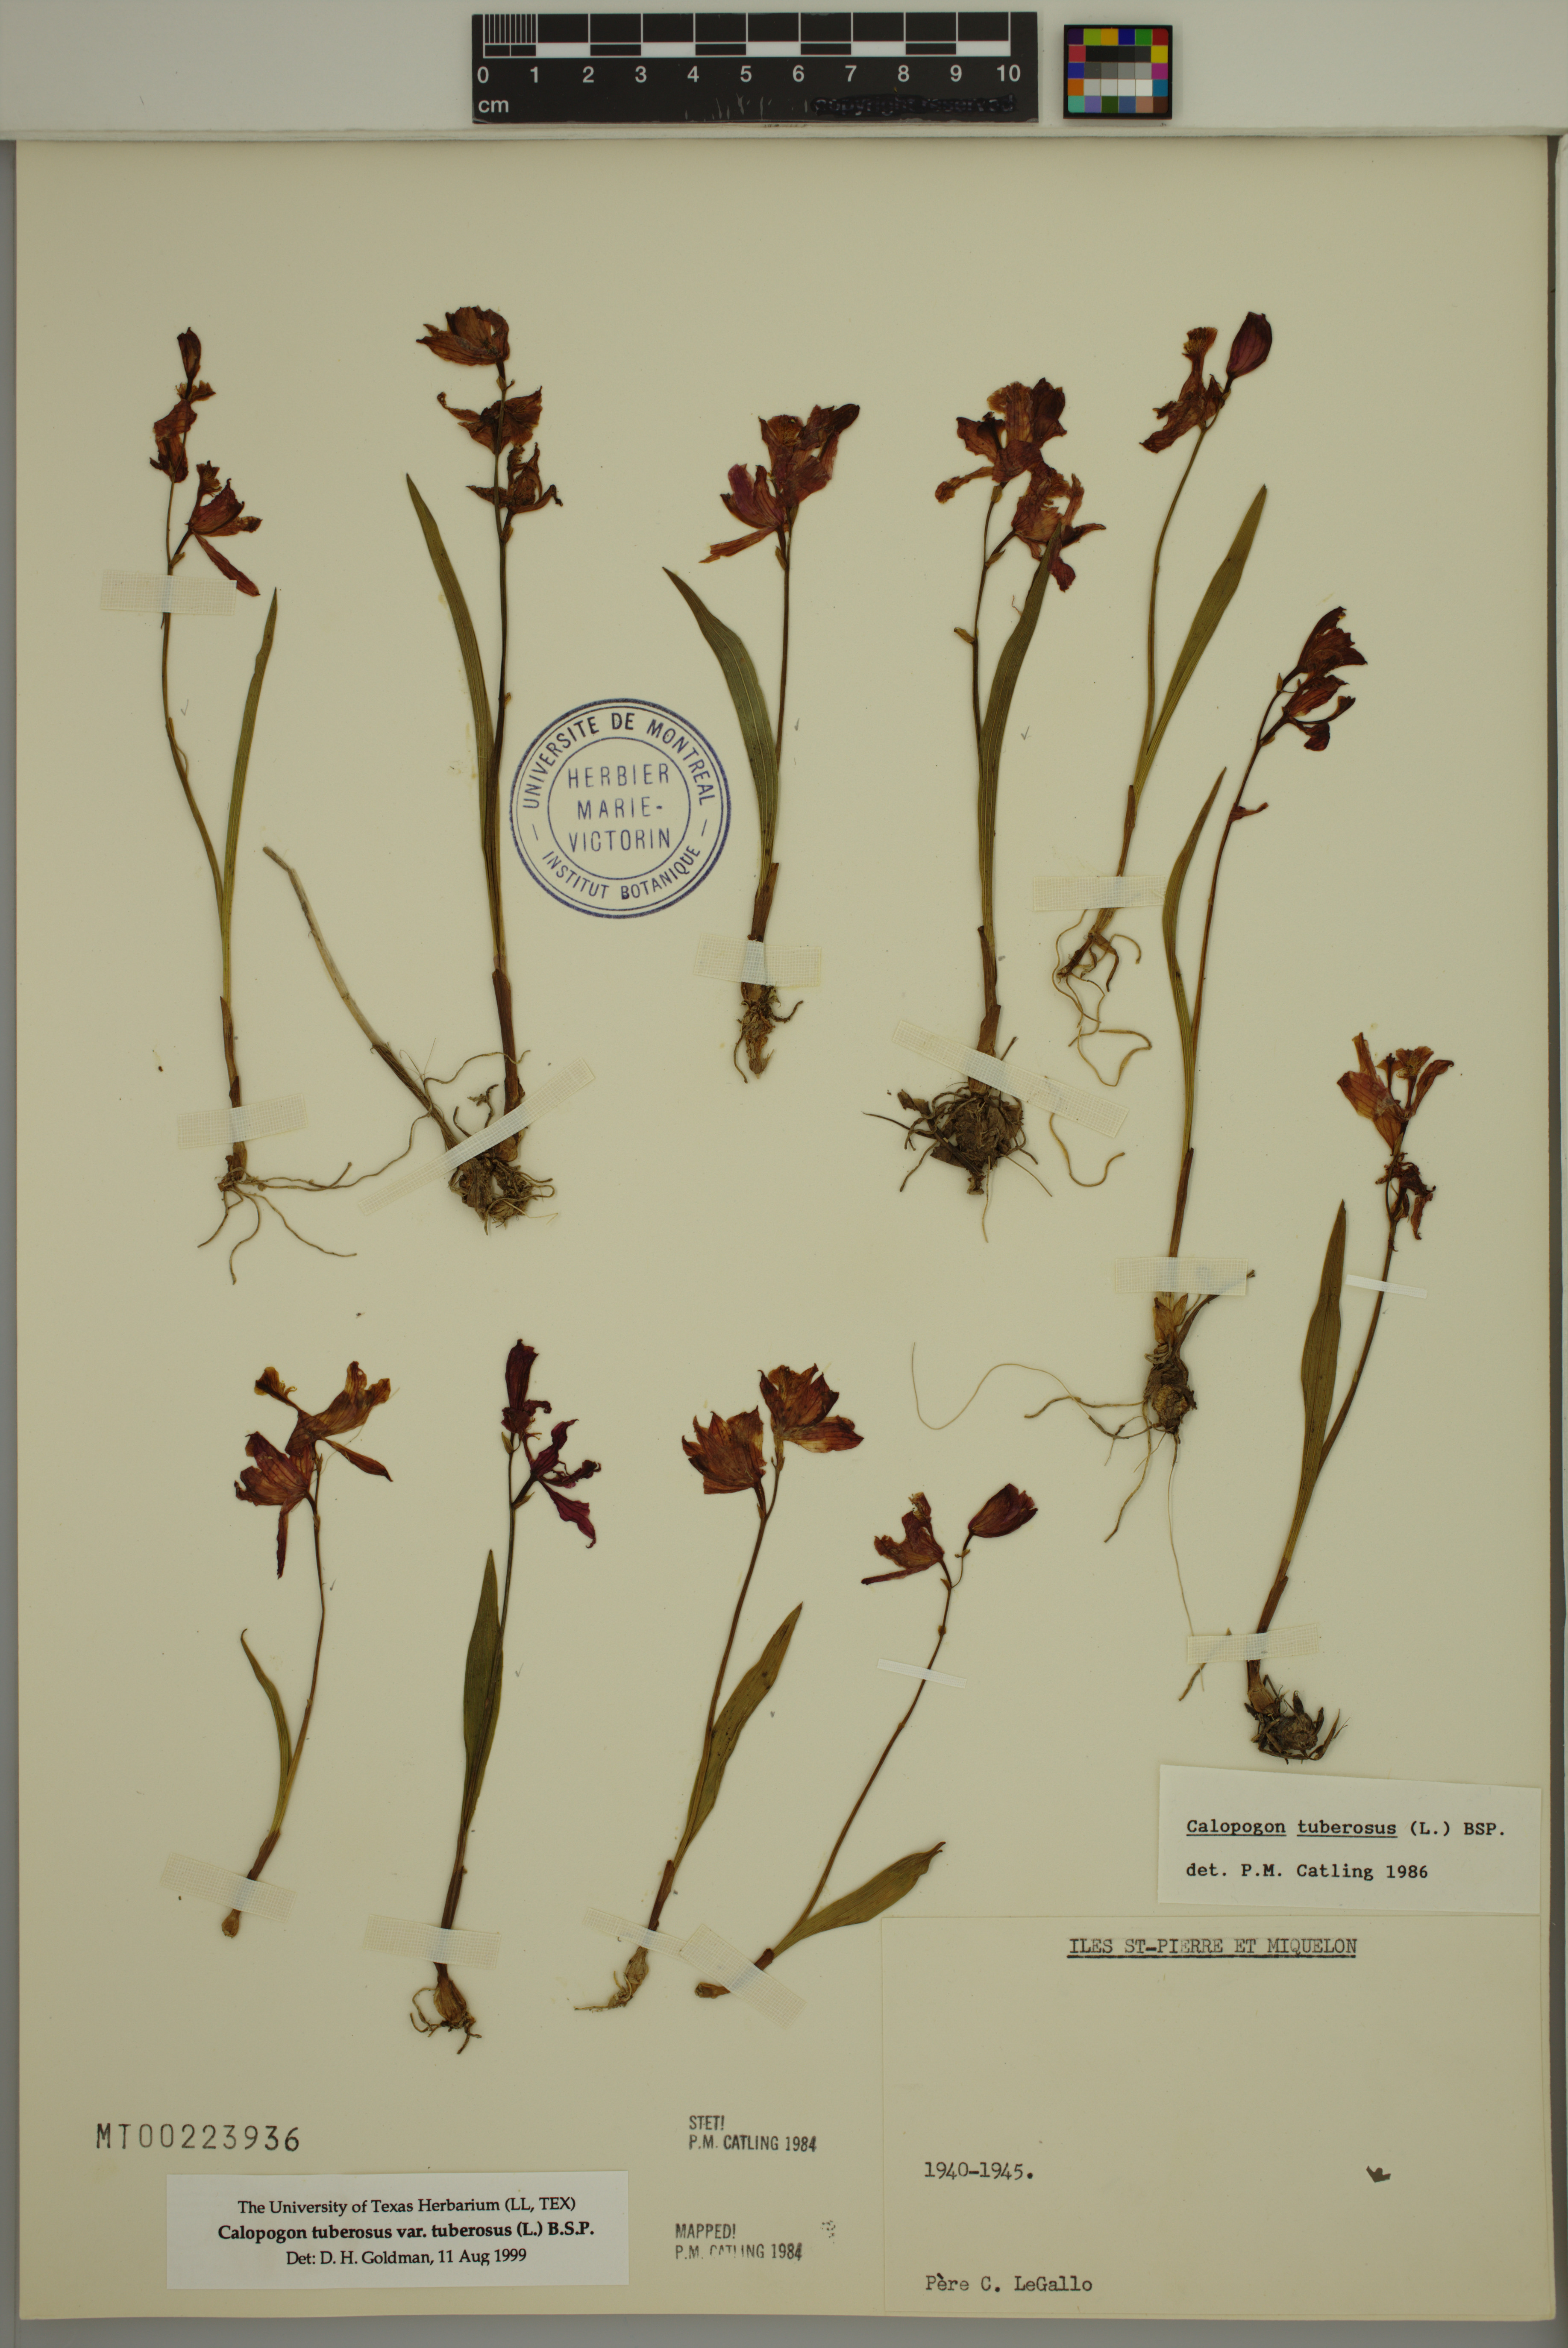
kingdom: Plantae
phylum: Tracheophyta
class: Liliopsida
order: Asparagales
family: Orchidaceae
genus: Calopogon
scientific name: Calopogon tuberosus
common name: Grass-pink
